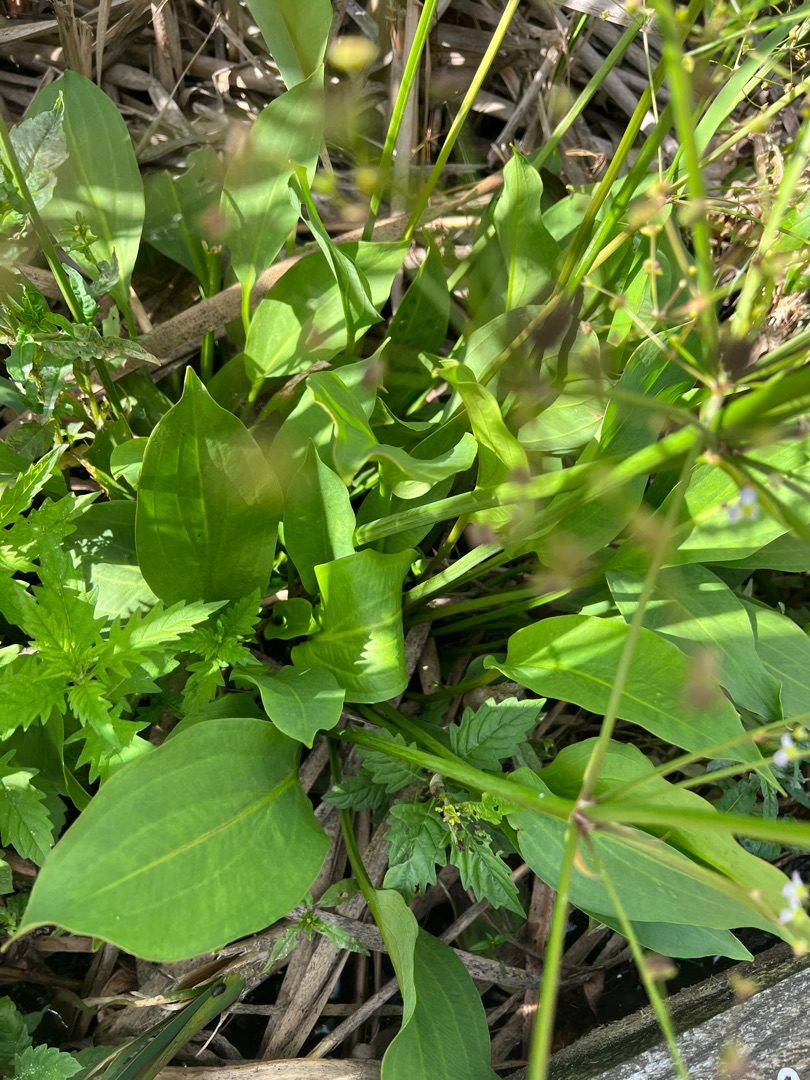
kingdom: Plantae
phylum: Tracheophyta
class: Liliopsida
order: Alismatales
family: Alismataceae
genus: Alisma
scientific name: Alisma plantago-aquatica
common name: Vejbred-skeblad
